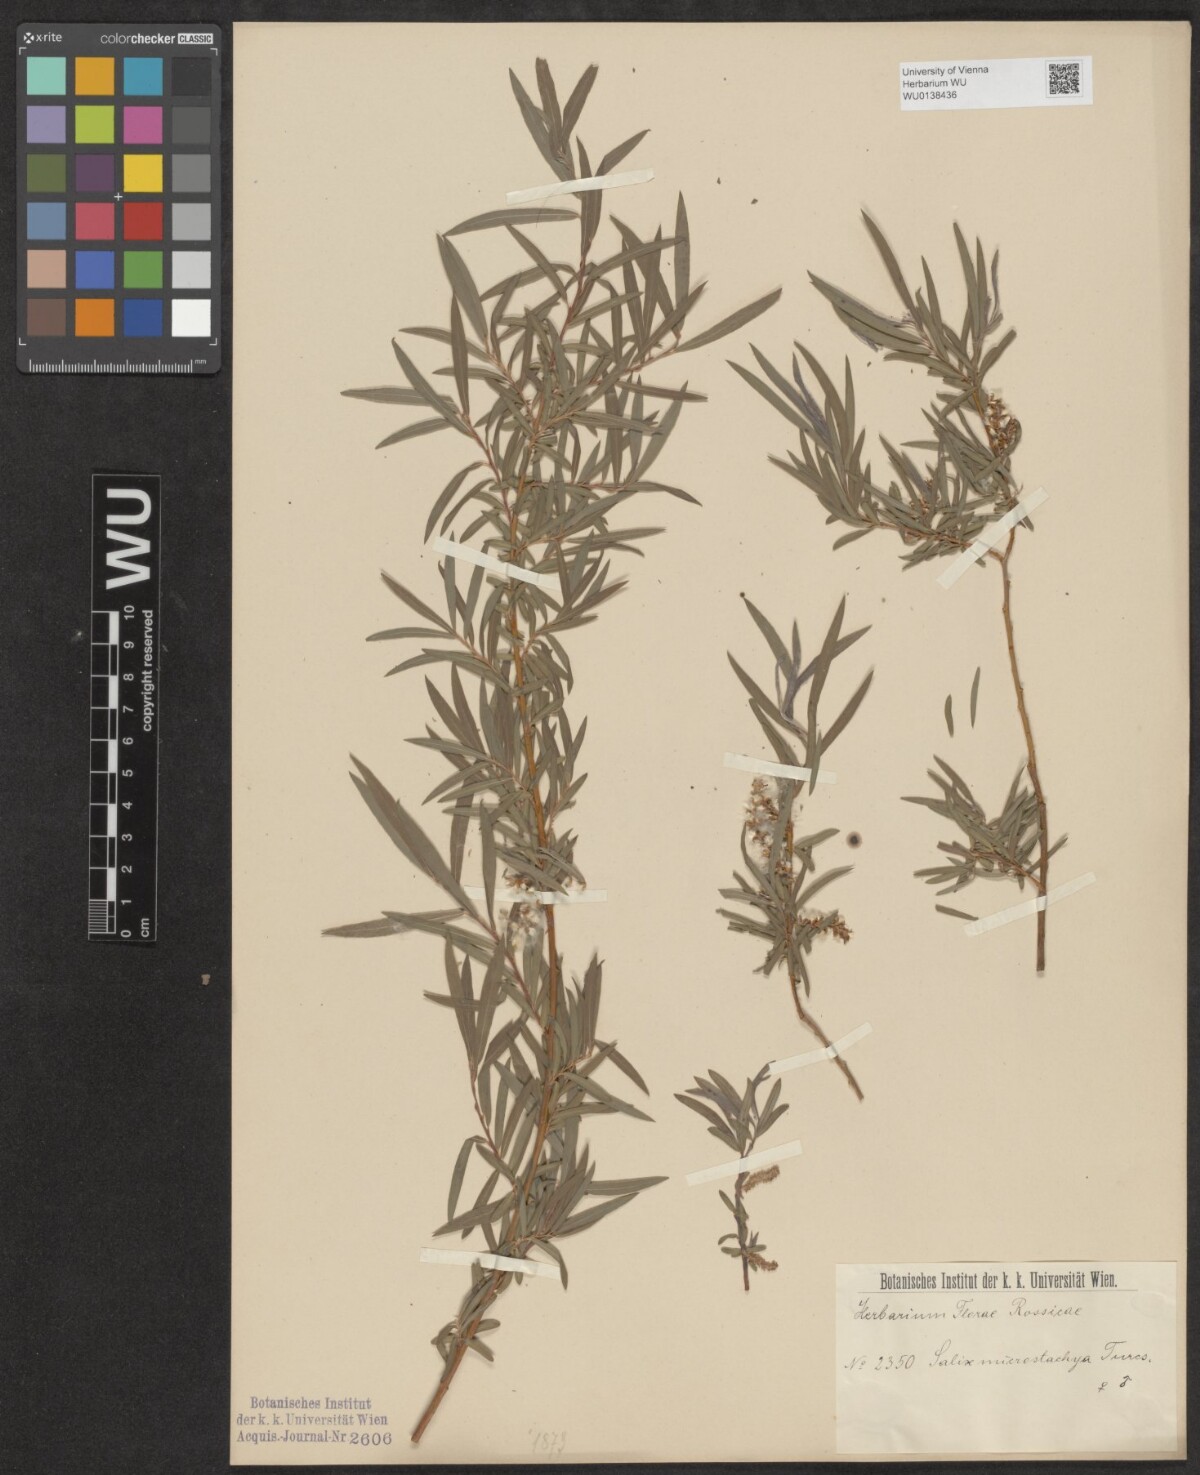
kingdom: Plantae
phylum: Tracheophyta
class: Magnoliopsida
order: Malpighiales
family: Salicaceae
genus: Salix
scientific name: Salix microstachya
